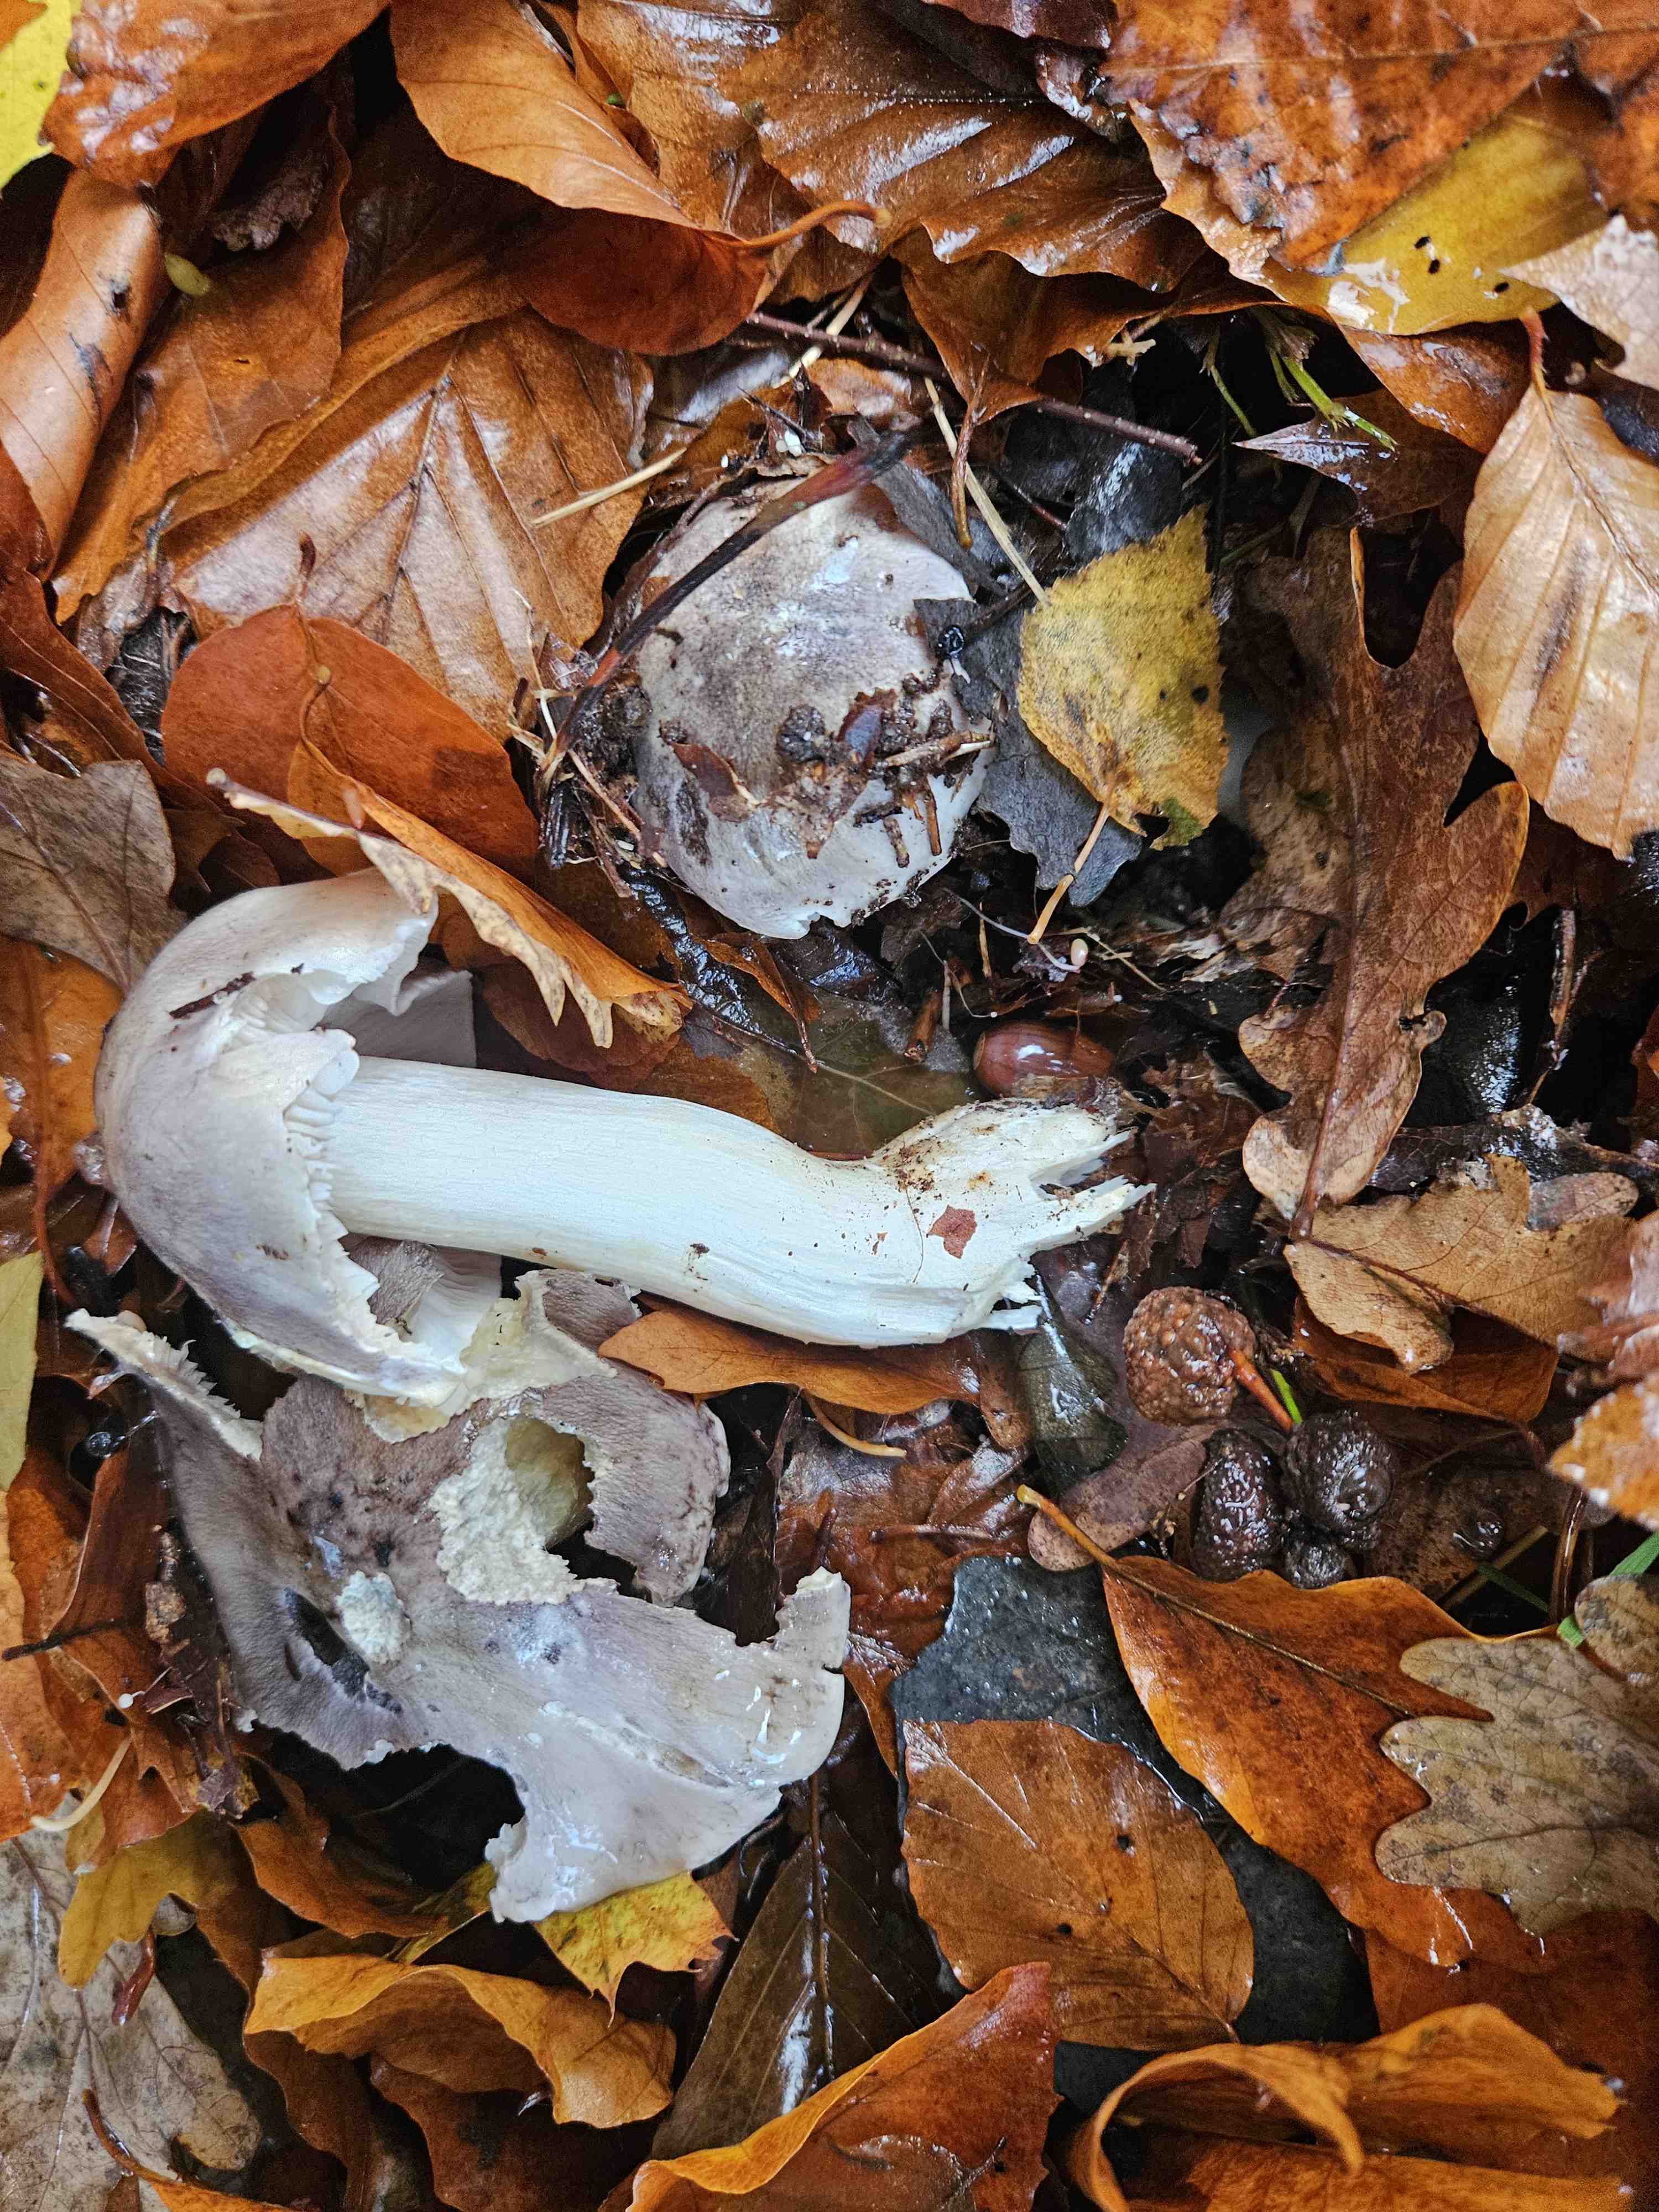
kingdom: Fungi
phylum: Basidiomycota
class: Agaricomycetes
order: Agaricales
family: Tricholomataceae
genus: Tricholoma
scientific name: Tricholoma portentosum
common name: grå ridderhat
